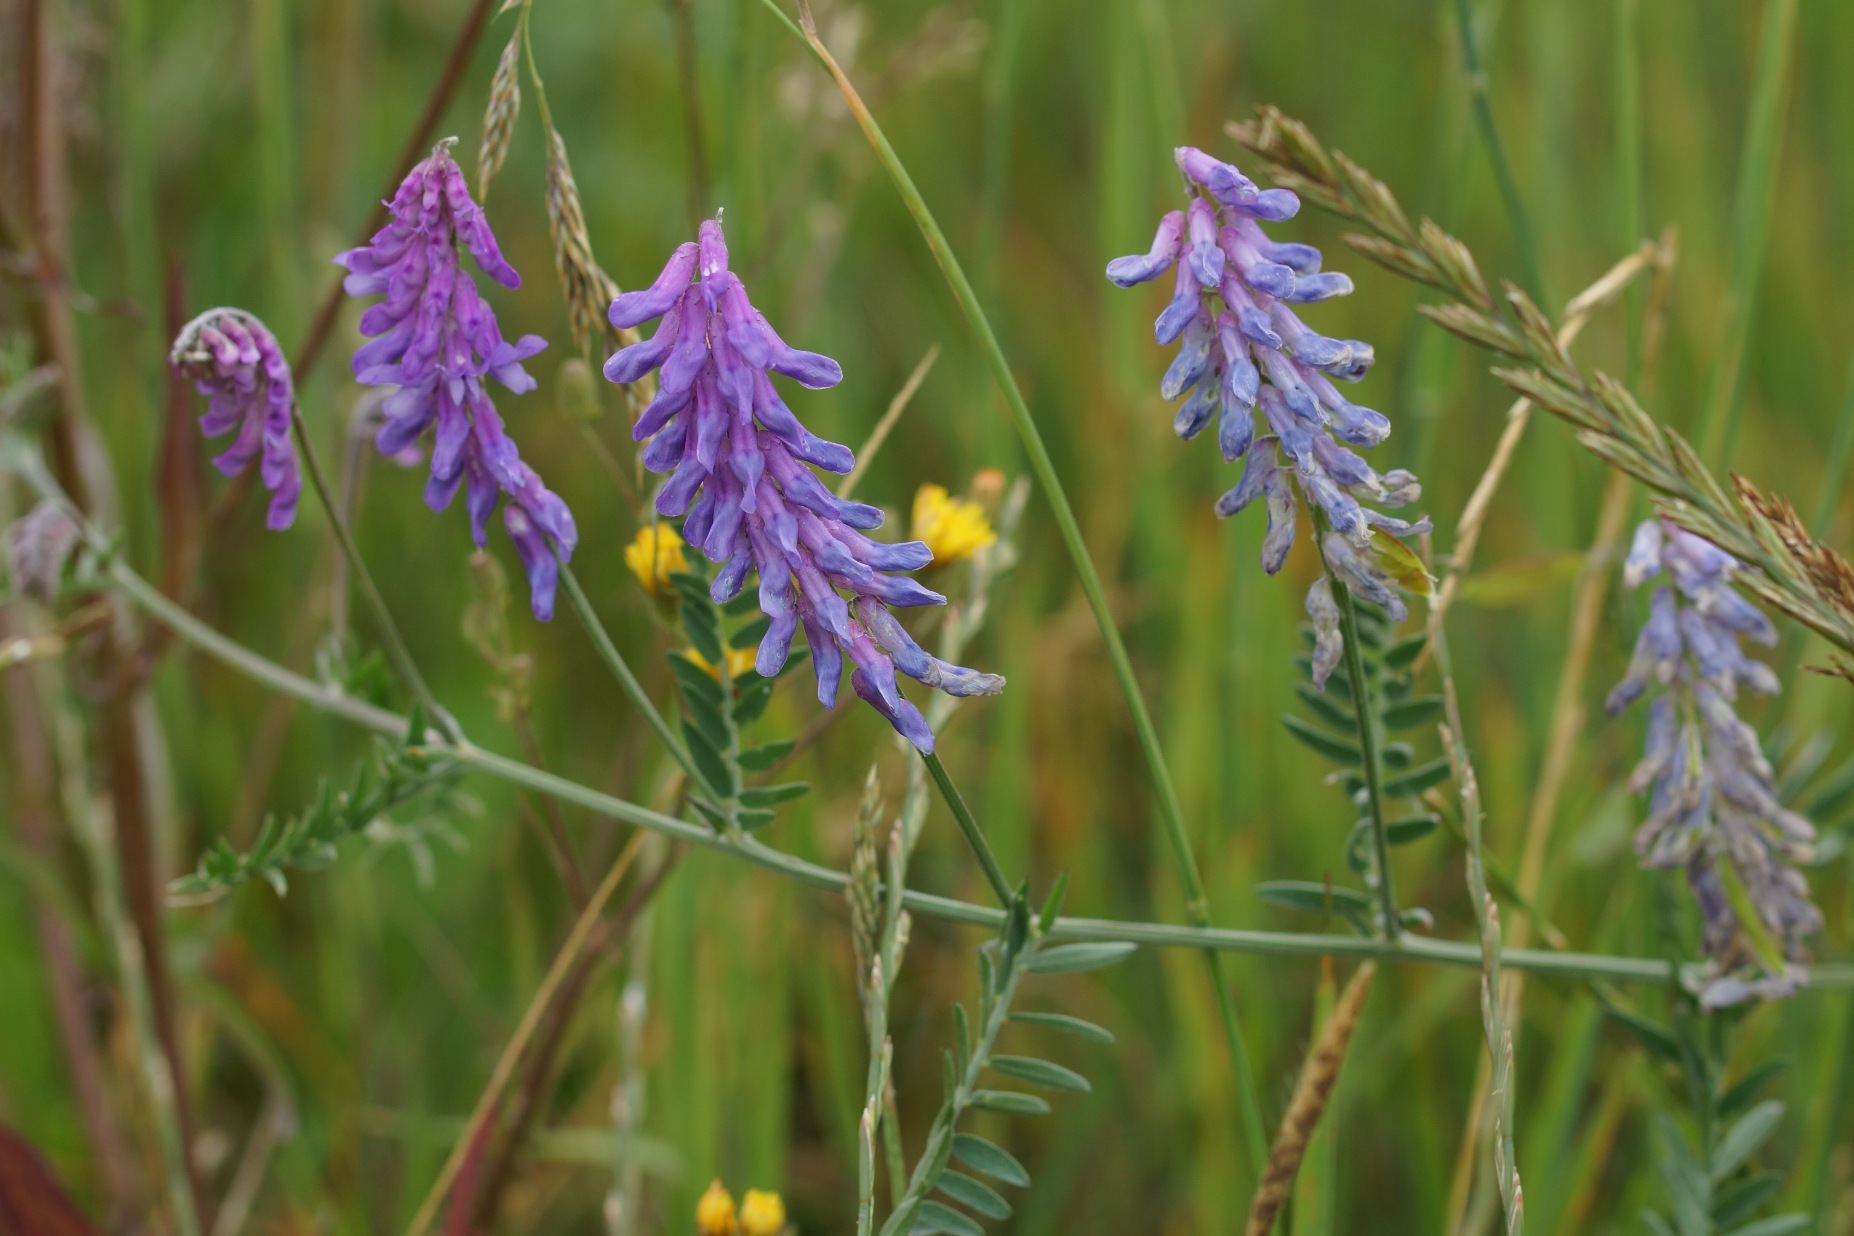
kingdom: Plantae
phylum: Tracheophyta
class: Magnoliopsida
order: Fabales
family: Fabaceae
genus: Vicia
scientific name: Vicia cracca
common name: Muse-vikke
